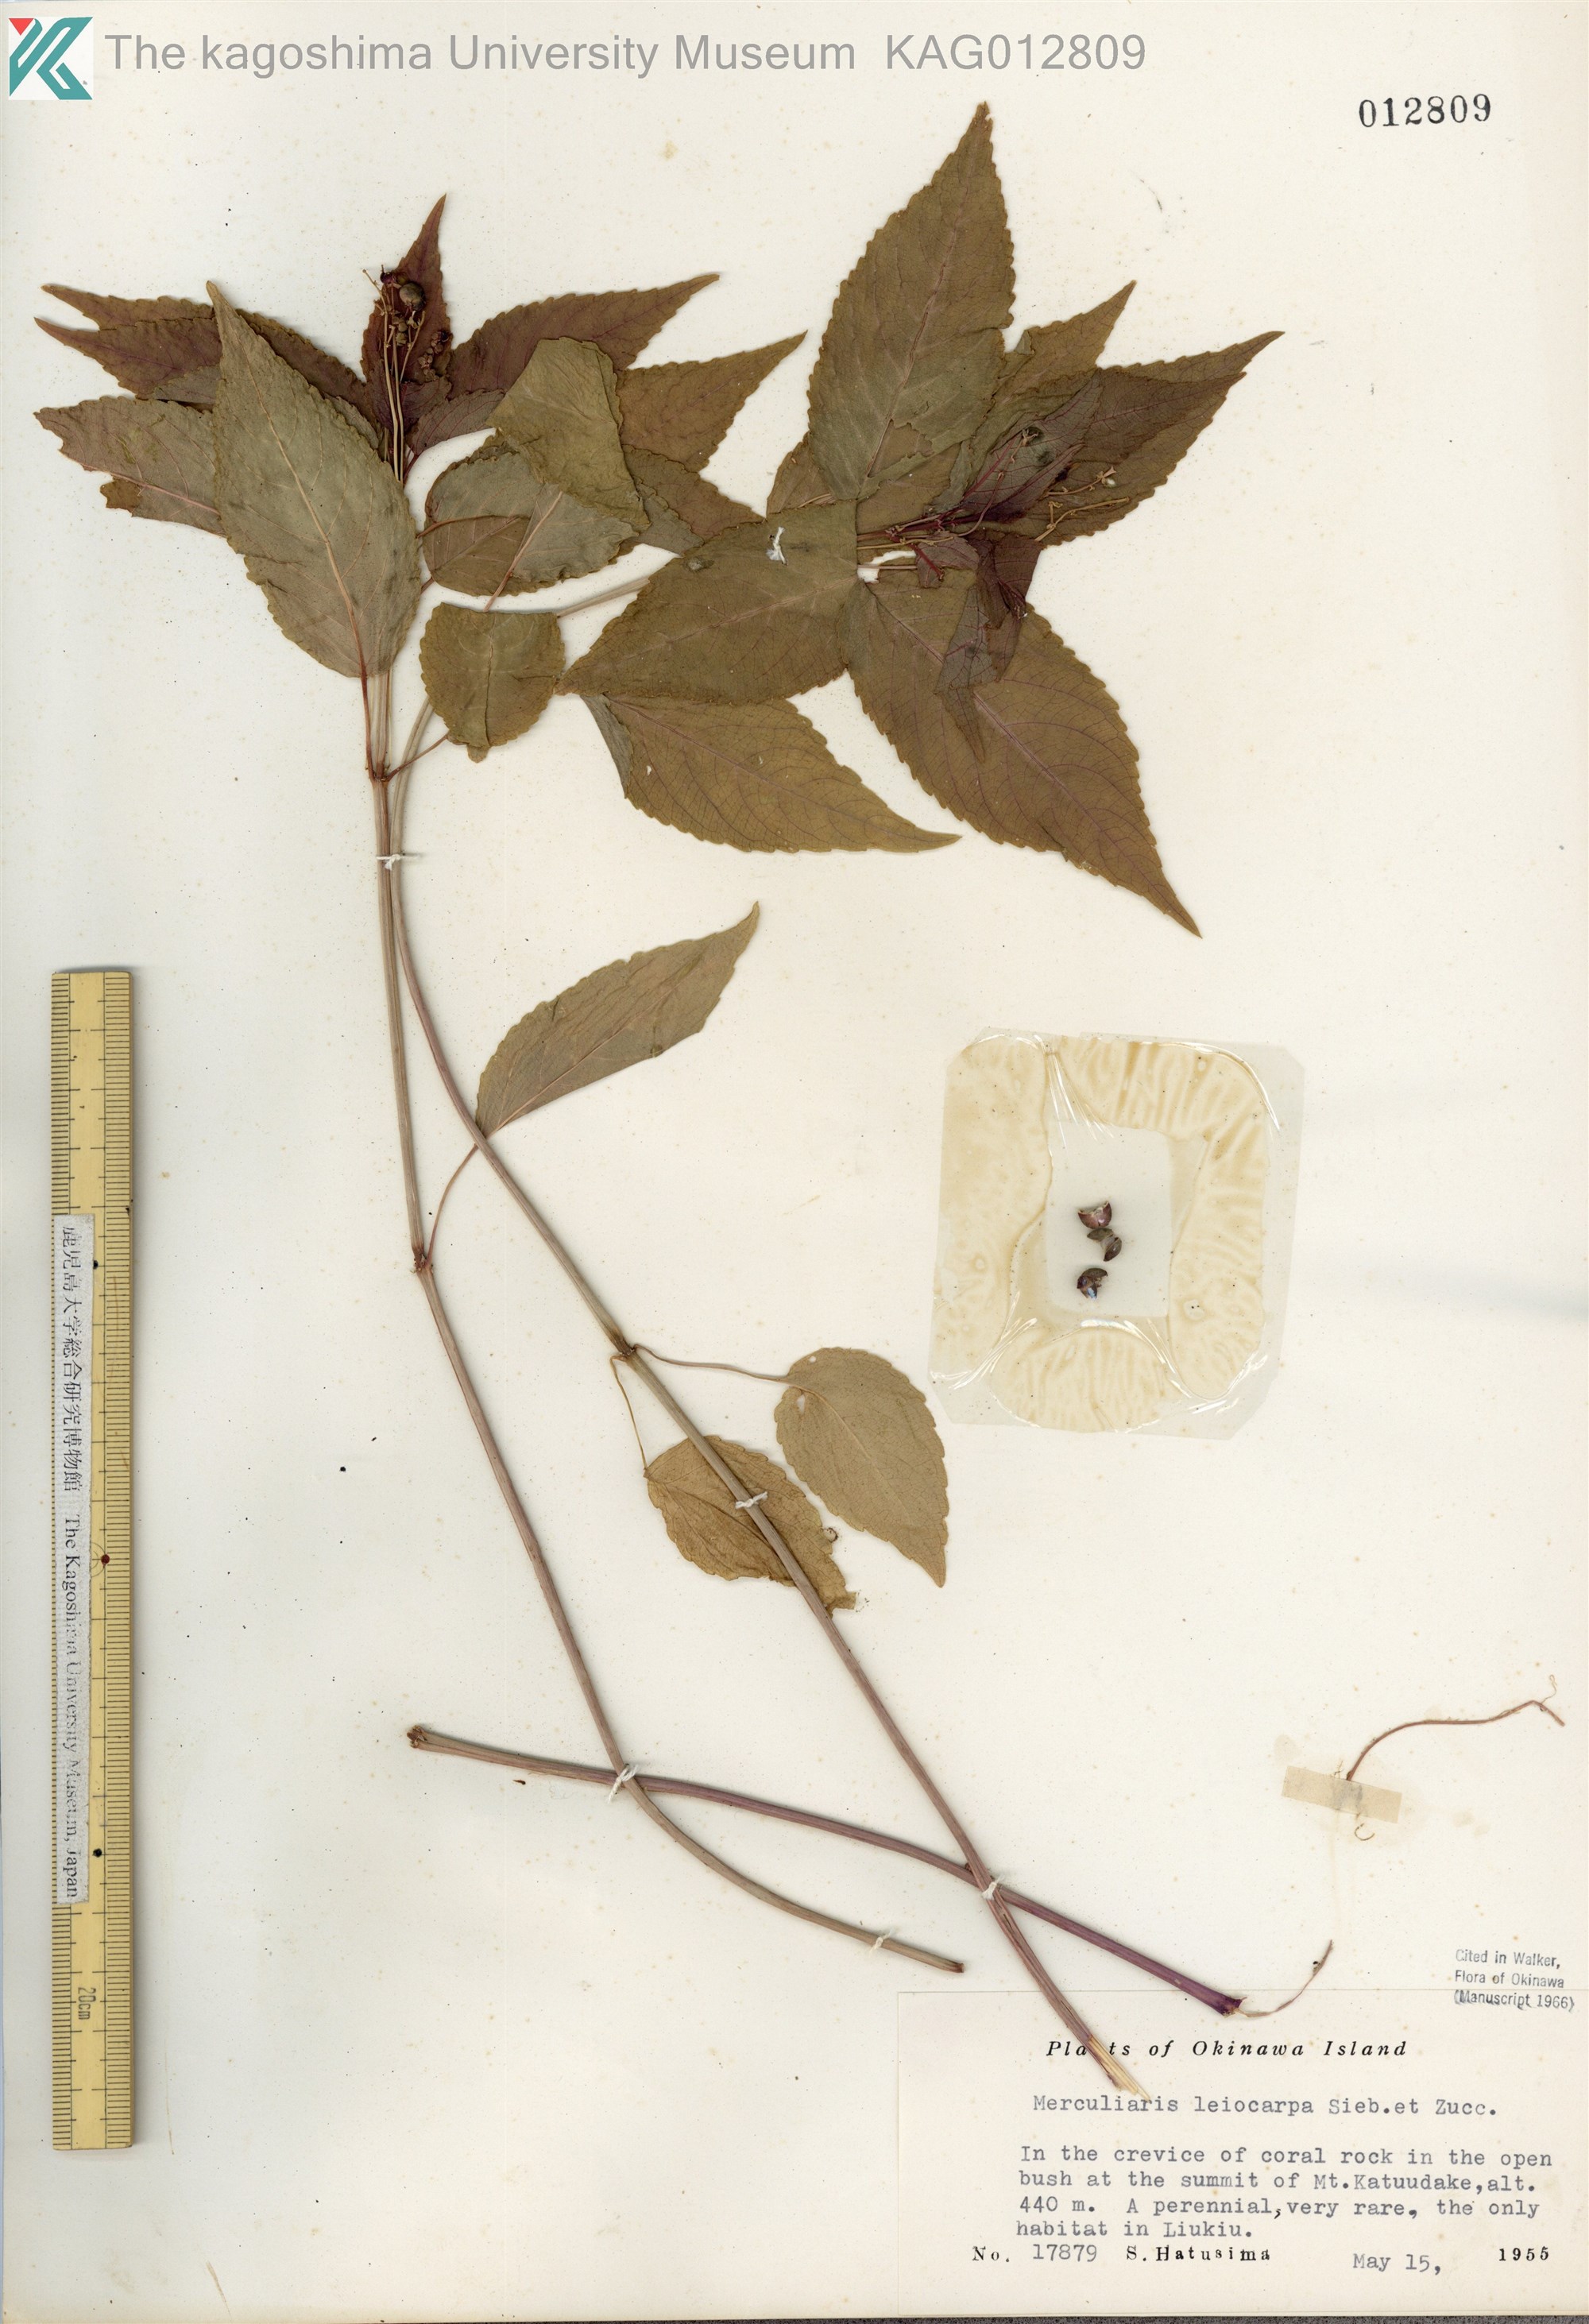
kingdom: Plantae
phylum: Tracheophyta
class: Magnoliopsida
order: Malpighiales
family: Euphorbiaceae
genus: Mercurialis
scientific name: Mercurialis leiocarpa
